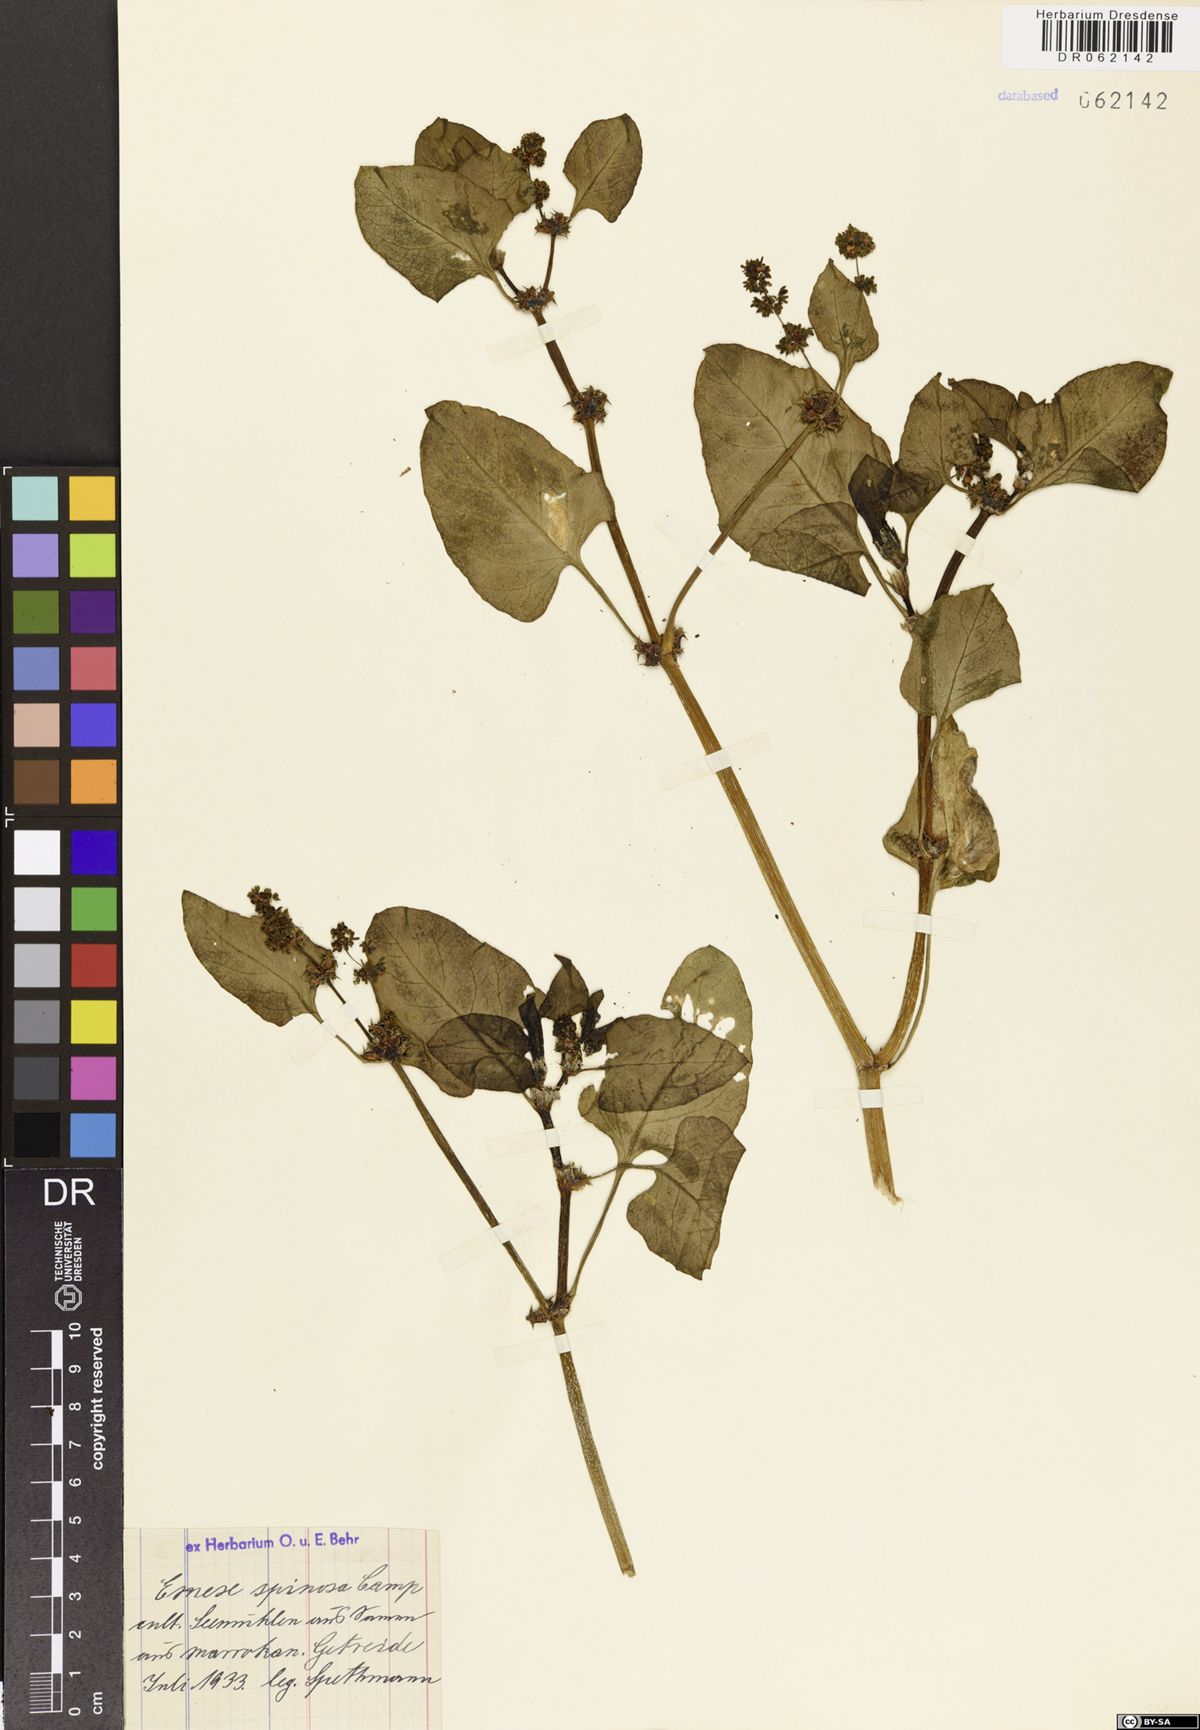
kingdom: Plantae
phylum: Tracheophyta
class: Magnoliopsida
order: Caryophyllales
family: Polygonaceae
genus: Rumex
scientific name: Rumex spinosus
